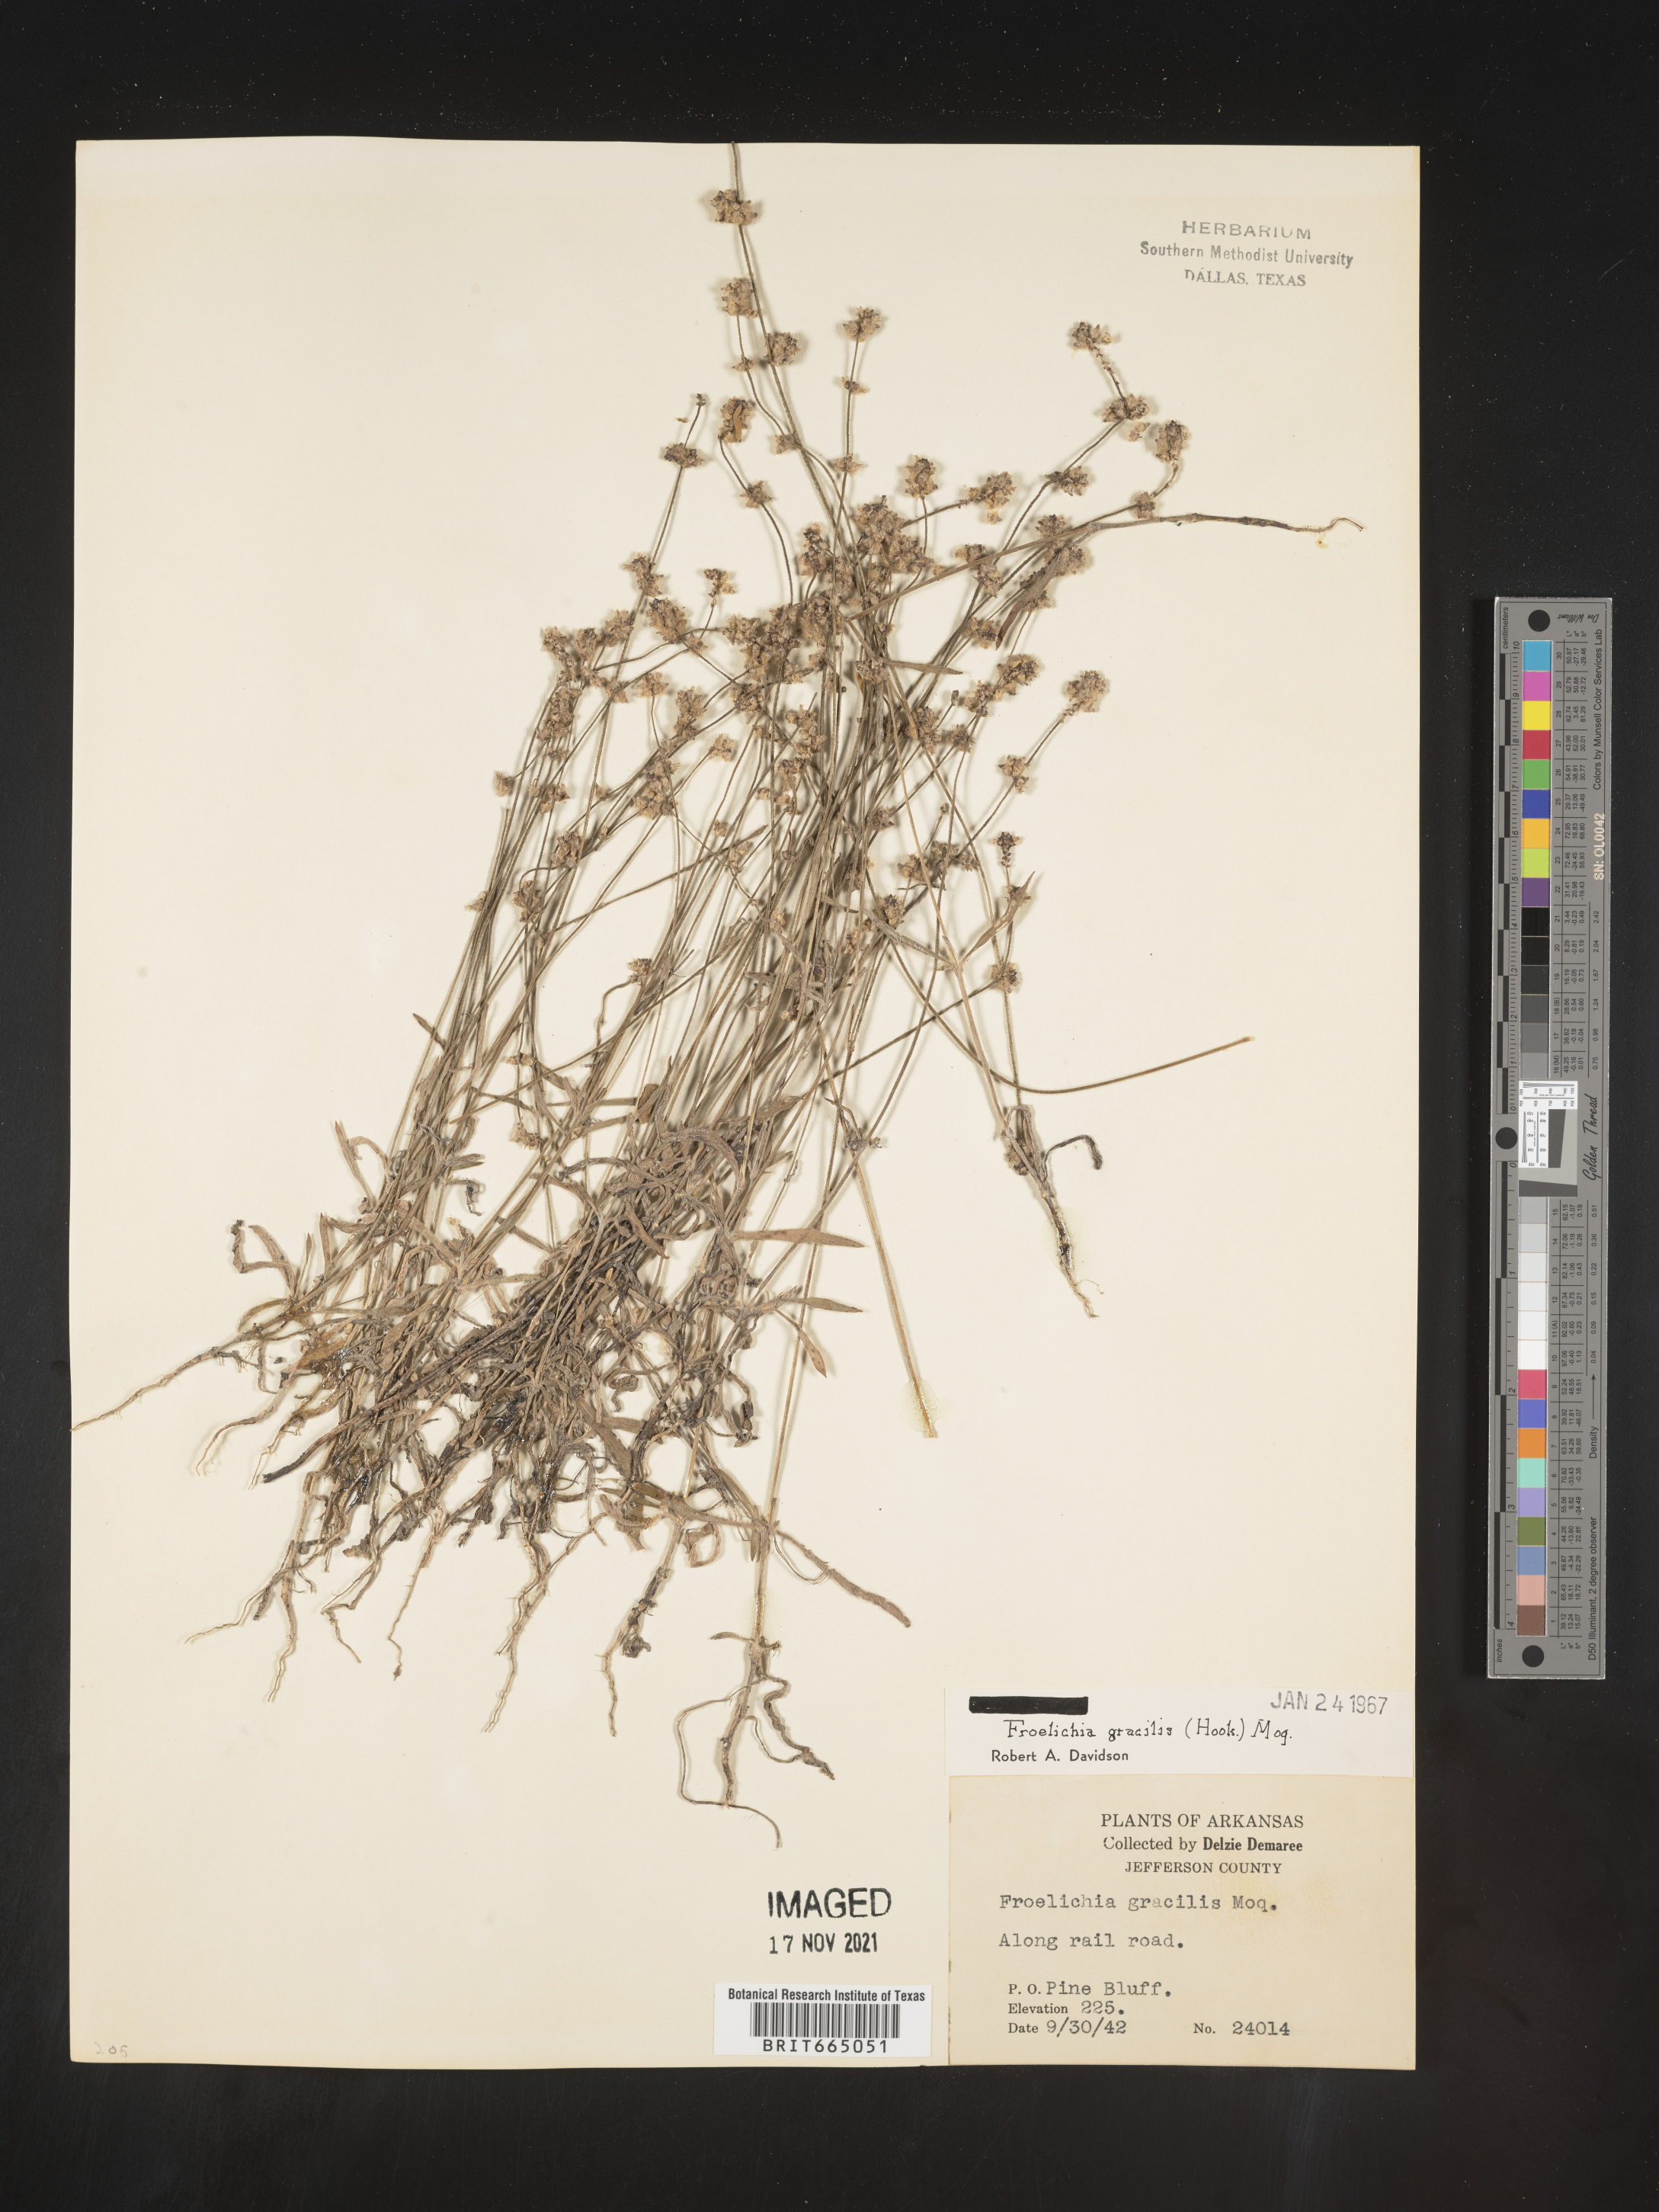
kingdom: Plantae
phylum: Tracheophyta
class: Magnoliopsida
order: Caryophyllales
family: Amaranthaceae
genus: Froelichia
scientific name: Froelichia gracilis
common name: Slender cottonweed
